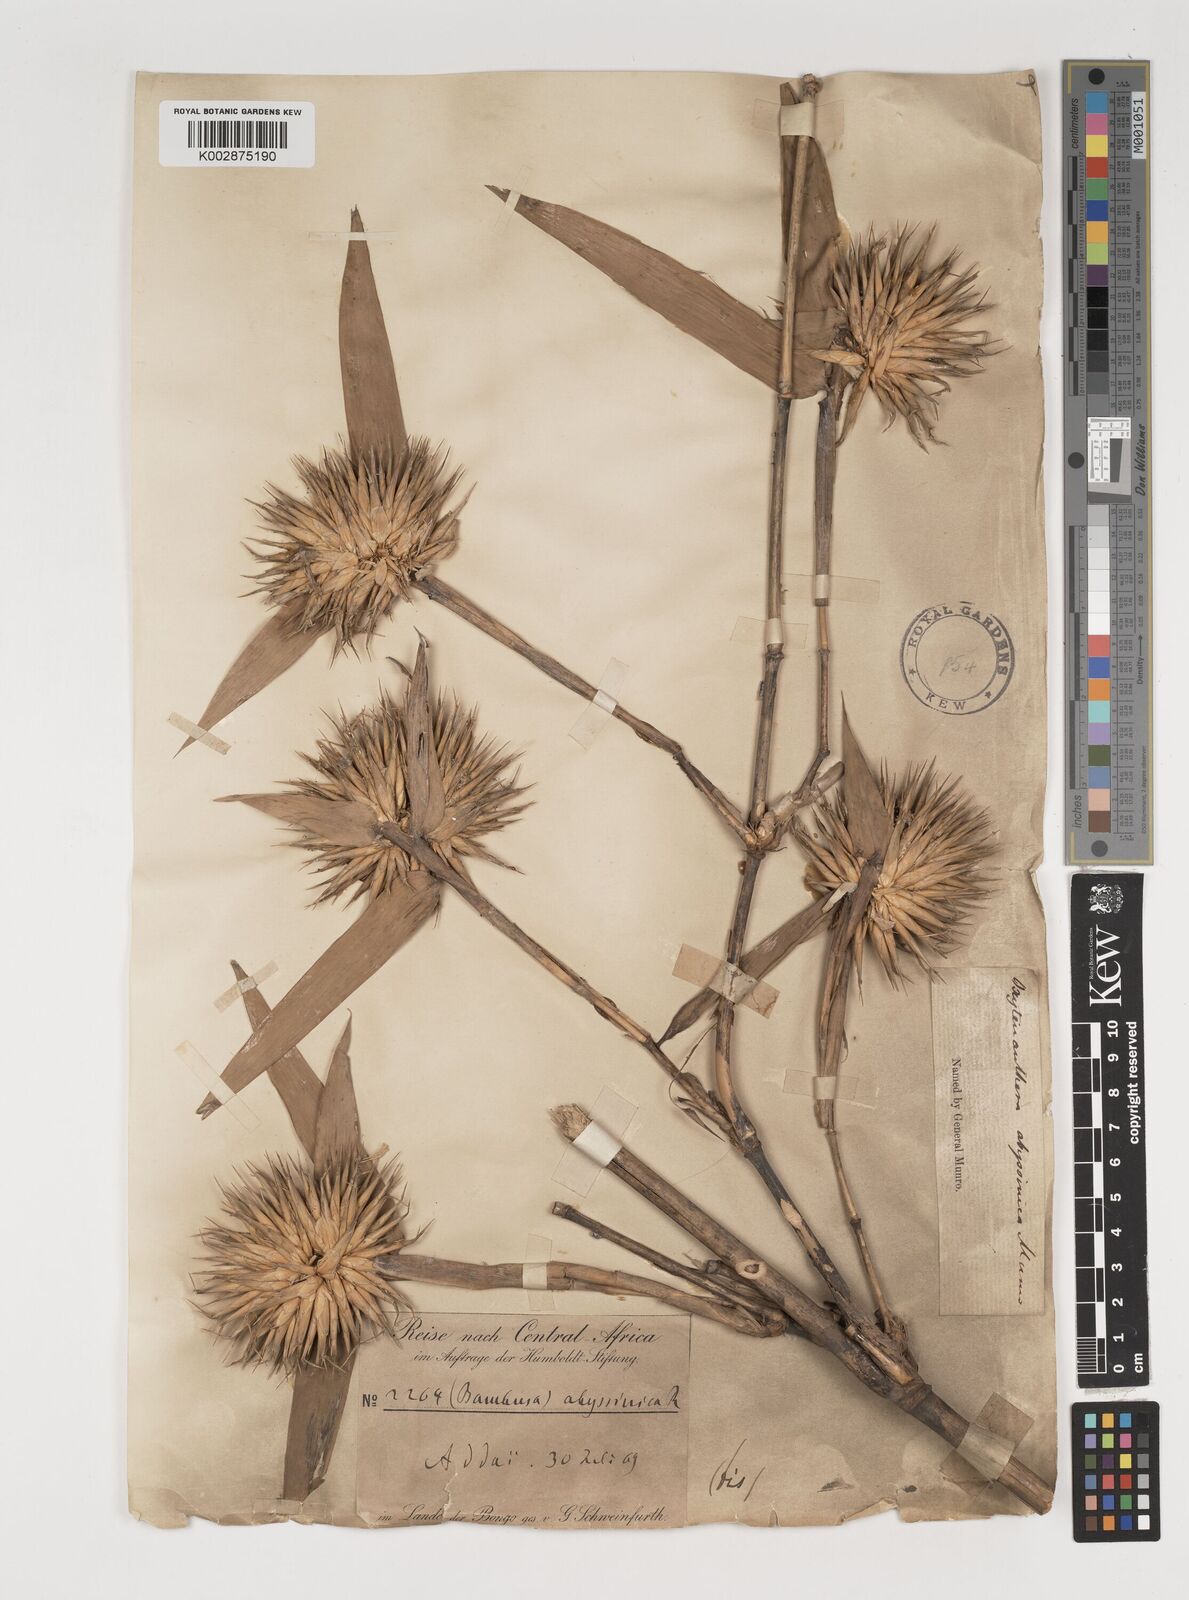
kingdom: Plantae
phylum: Tracheophyta
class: Liliopsida
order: Poales
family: Poaceae
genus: Oxytenanthera
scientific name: Oxytenanthera abyssinica
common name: Wine bamboo
